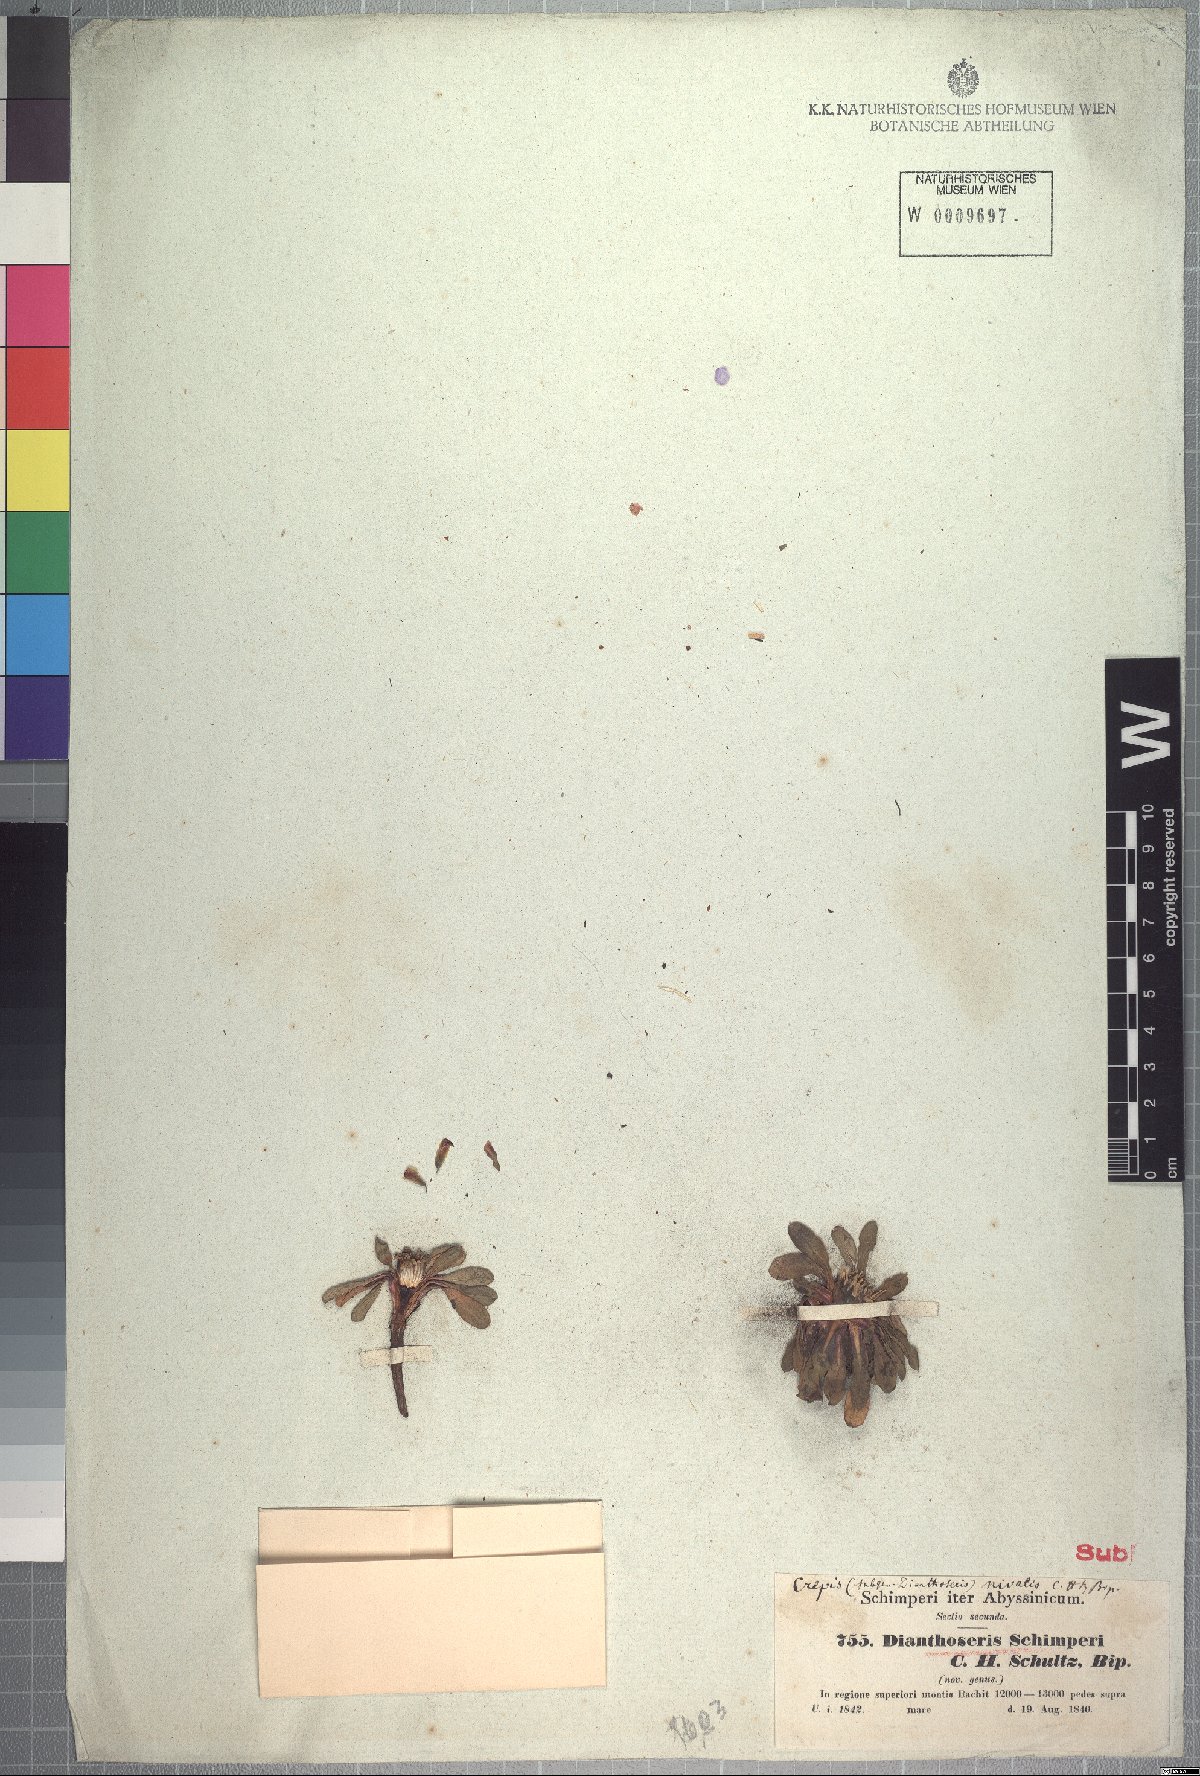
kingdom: Plantae
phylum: Tracheophyta
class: Magnoliopsida
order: Asterales
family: Asteraceae
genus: Crepis
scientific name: Crepis dianthoseris
